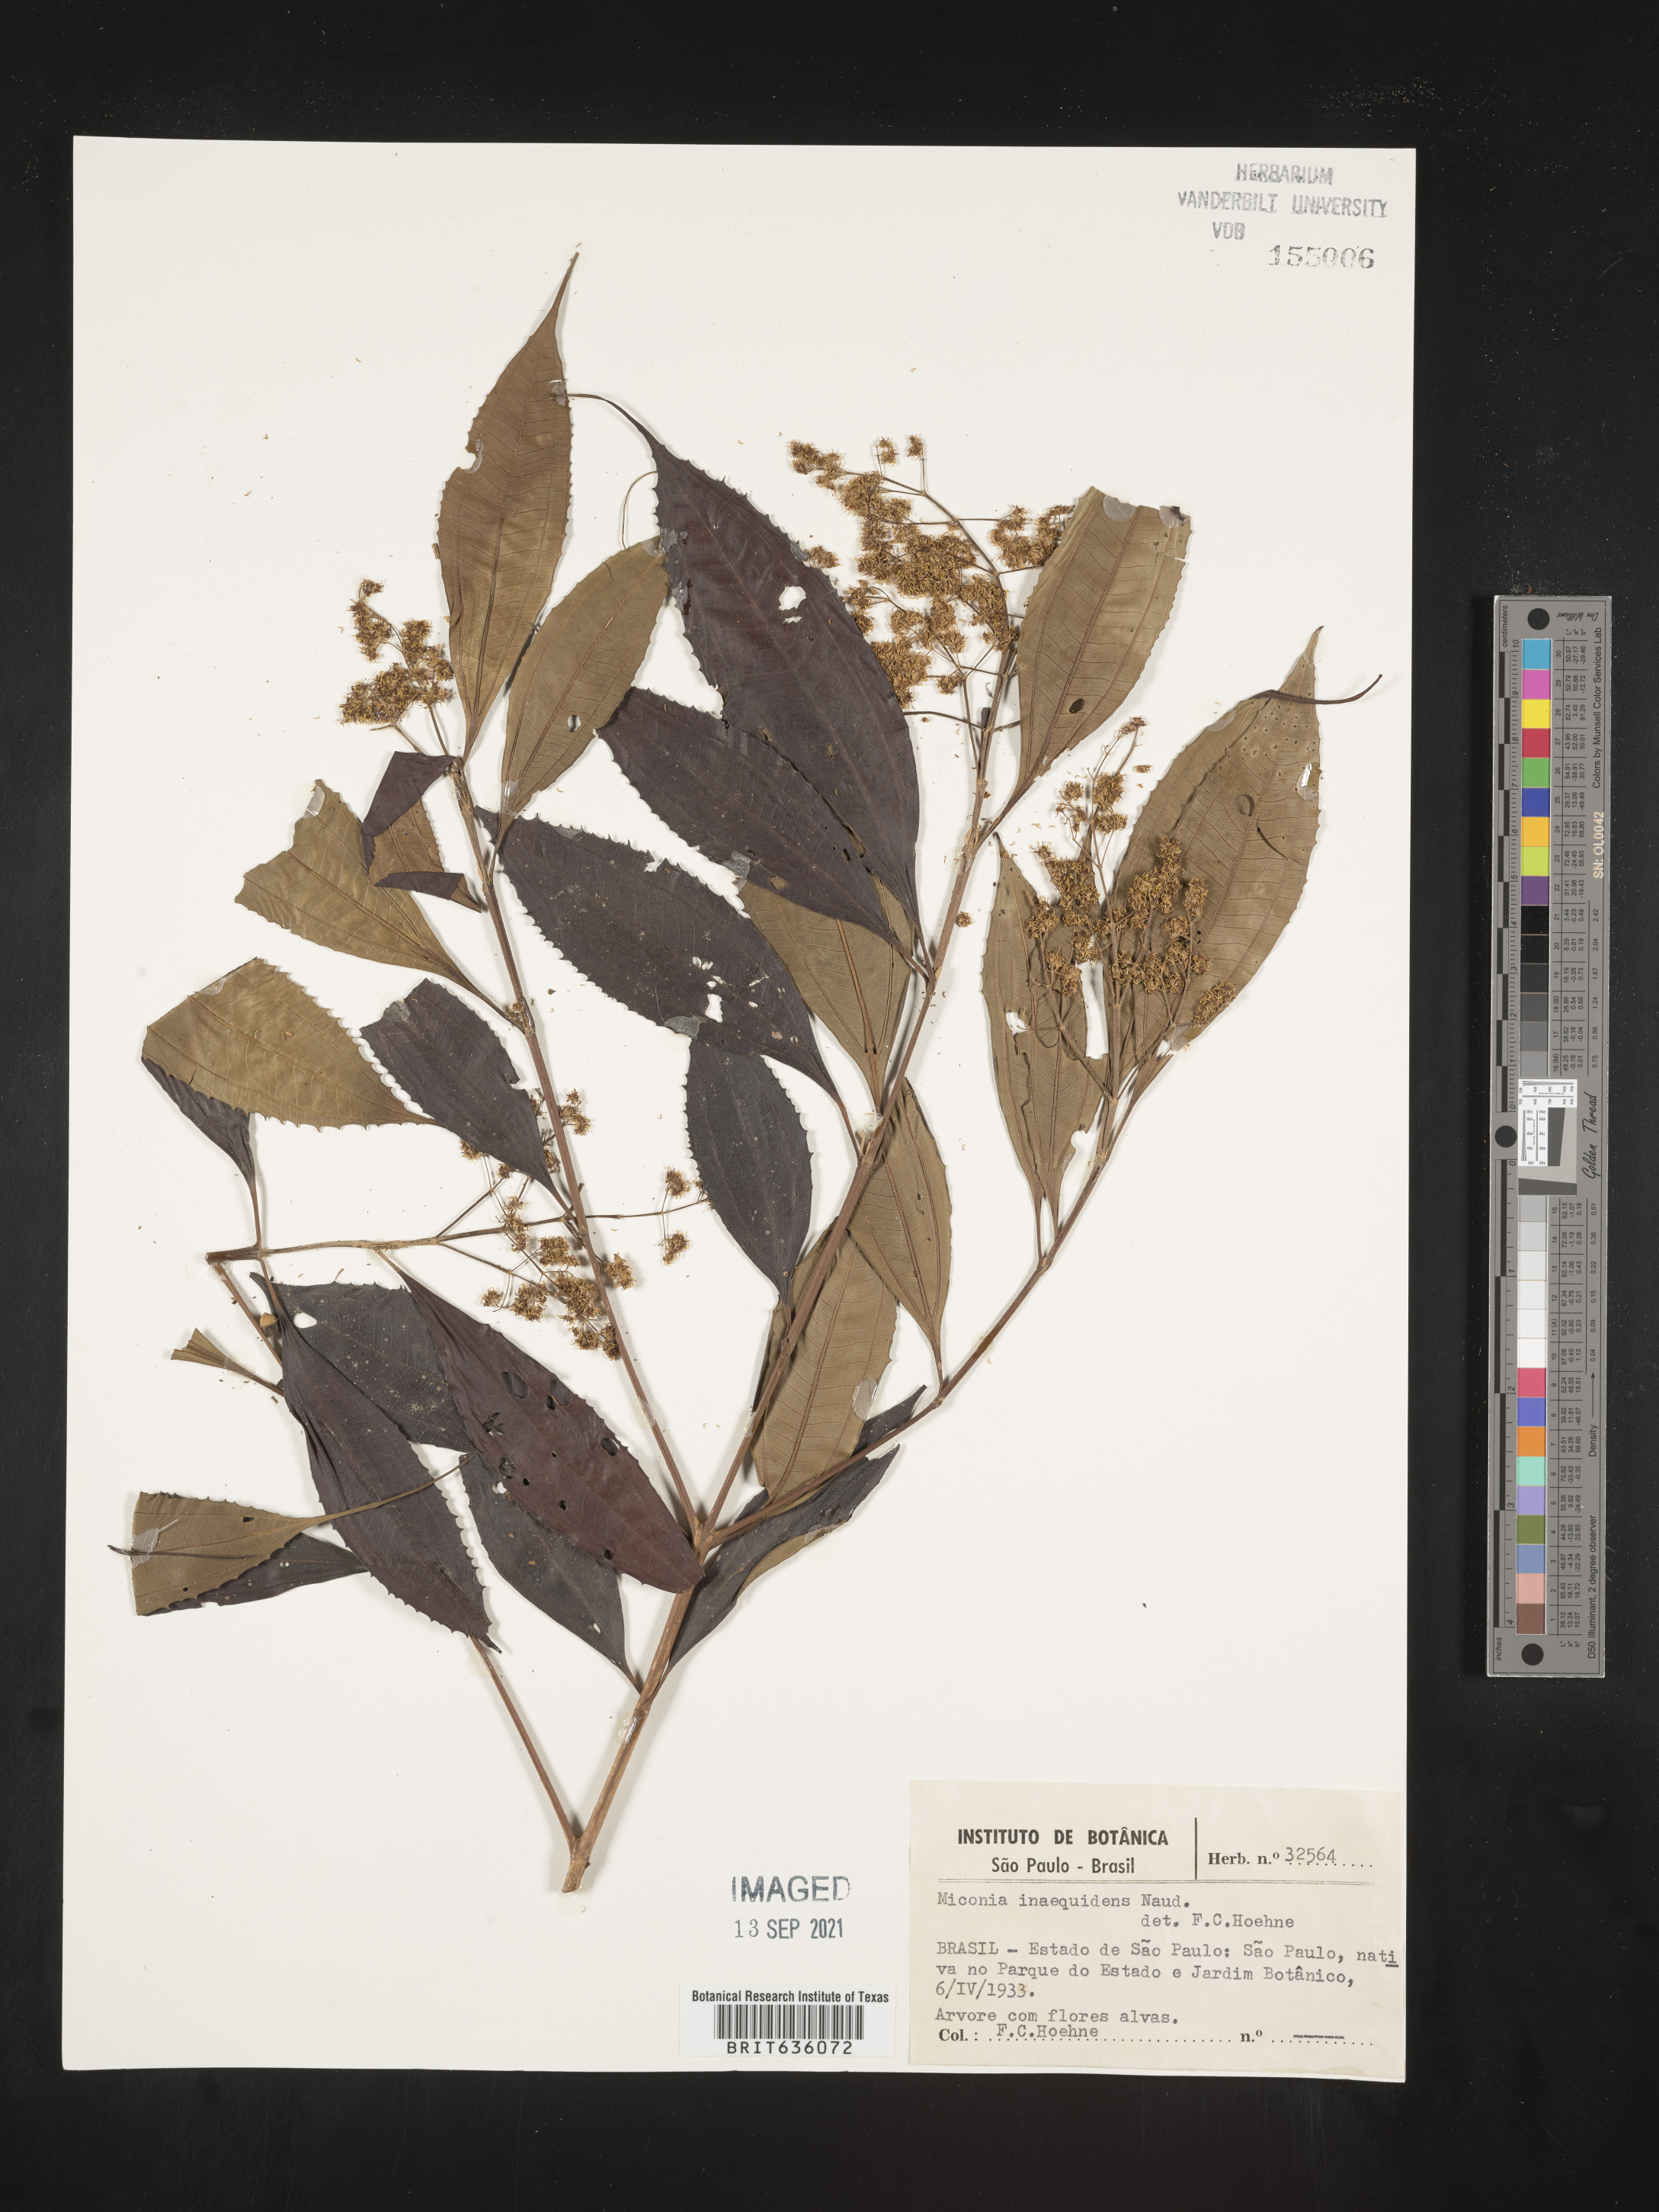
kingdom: Plantae
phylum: Tracheophyta
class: Magnoliopsida
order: Myrtales
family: Melastomataceae
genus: Miconia
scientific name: Miconia
